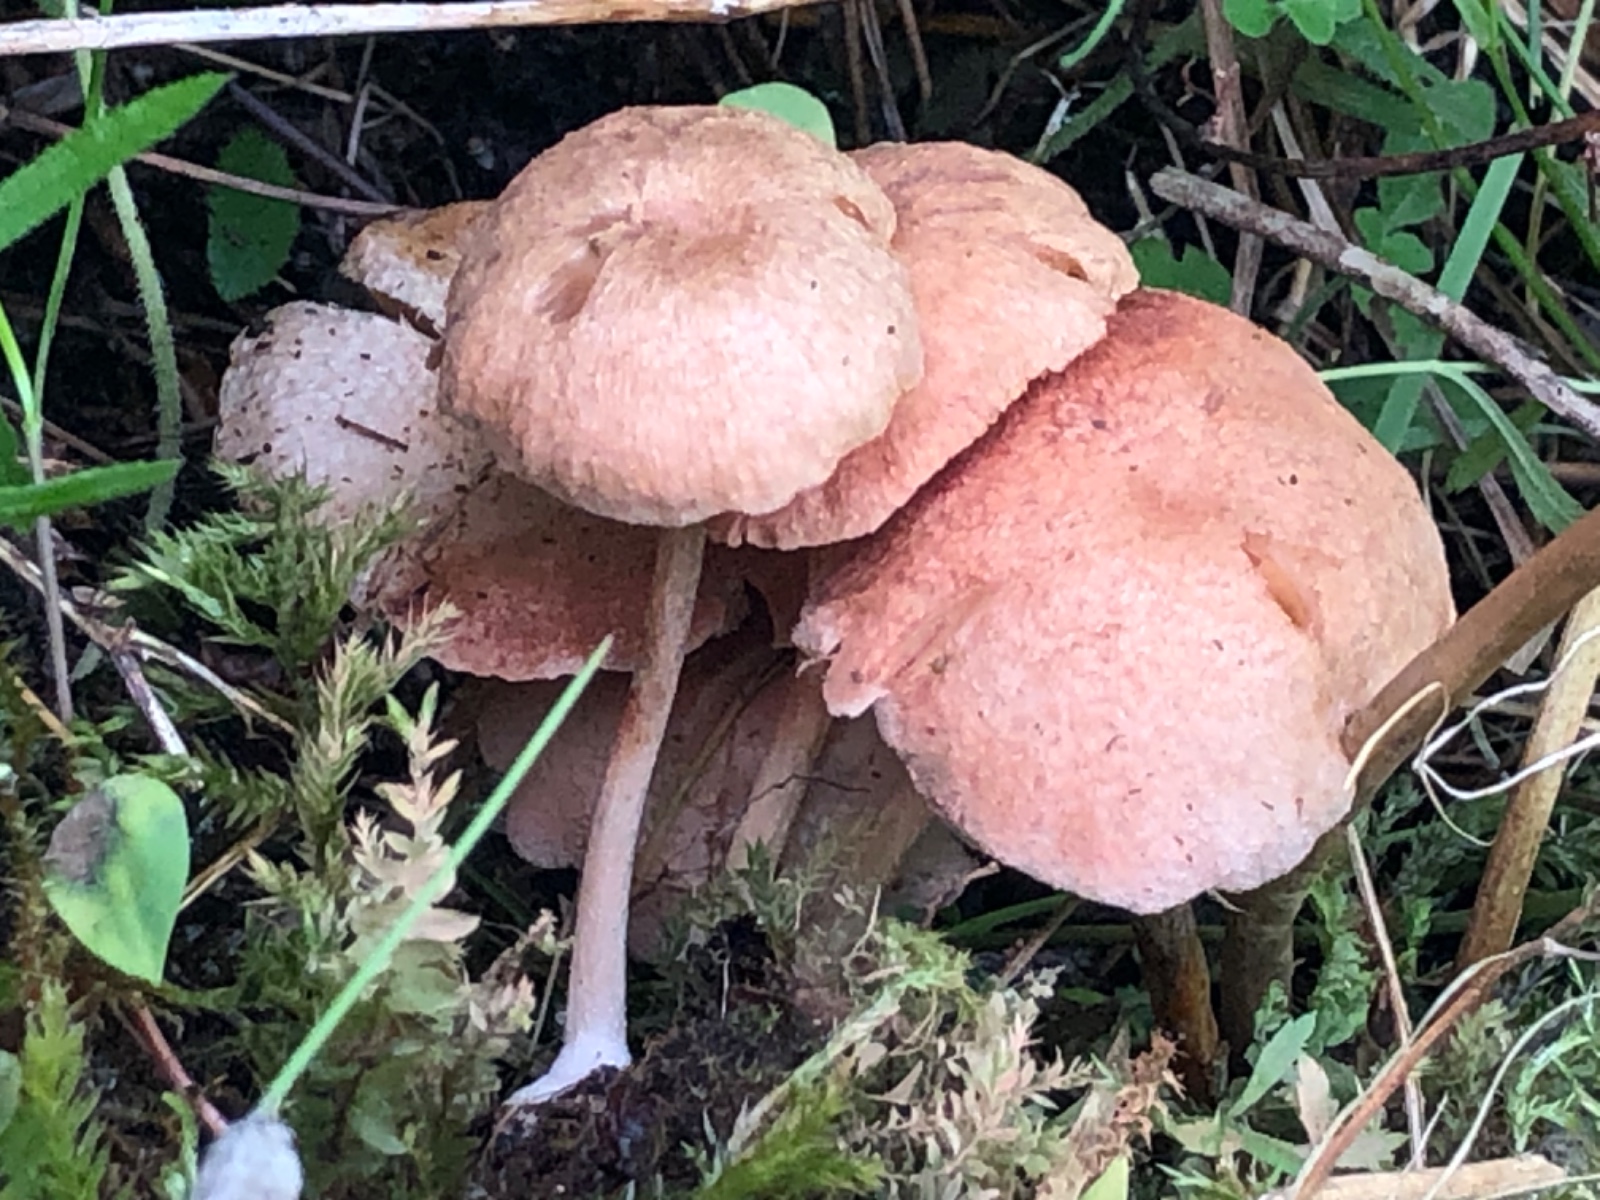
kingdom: Fungi
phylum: Basidiomycota
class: Agaricomycetes
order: Agaricales
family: Entolomataceae
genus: Entoloma
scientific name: Entoloma queletii
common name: rosalilla rødblad
